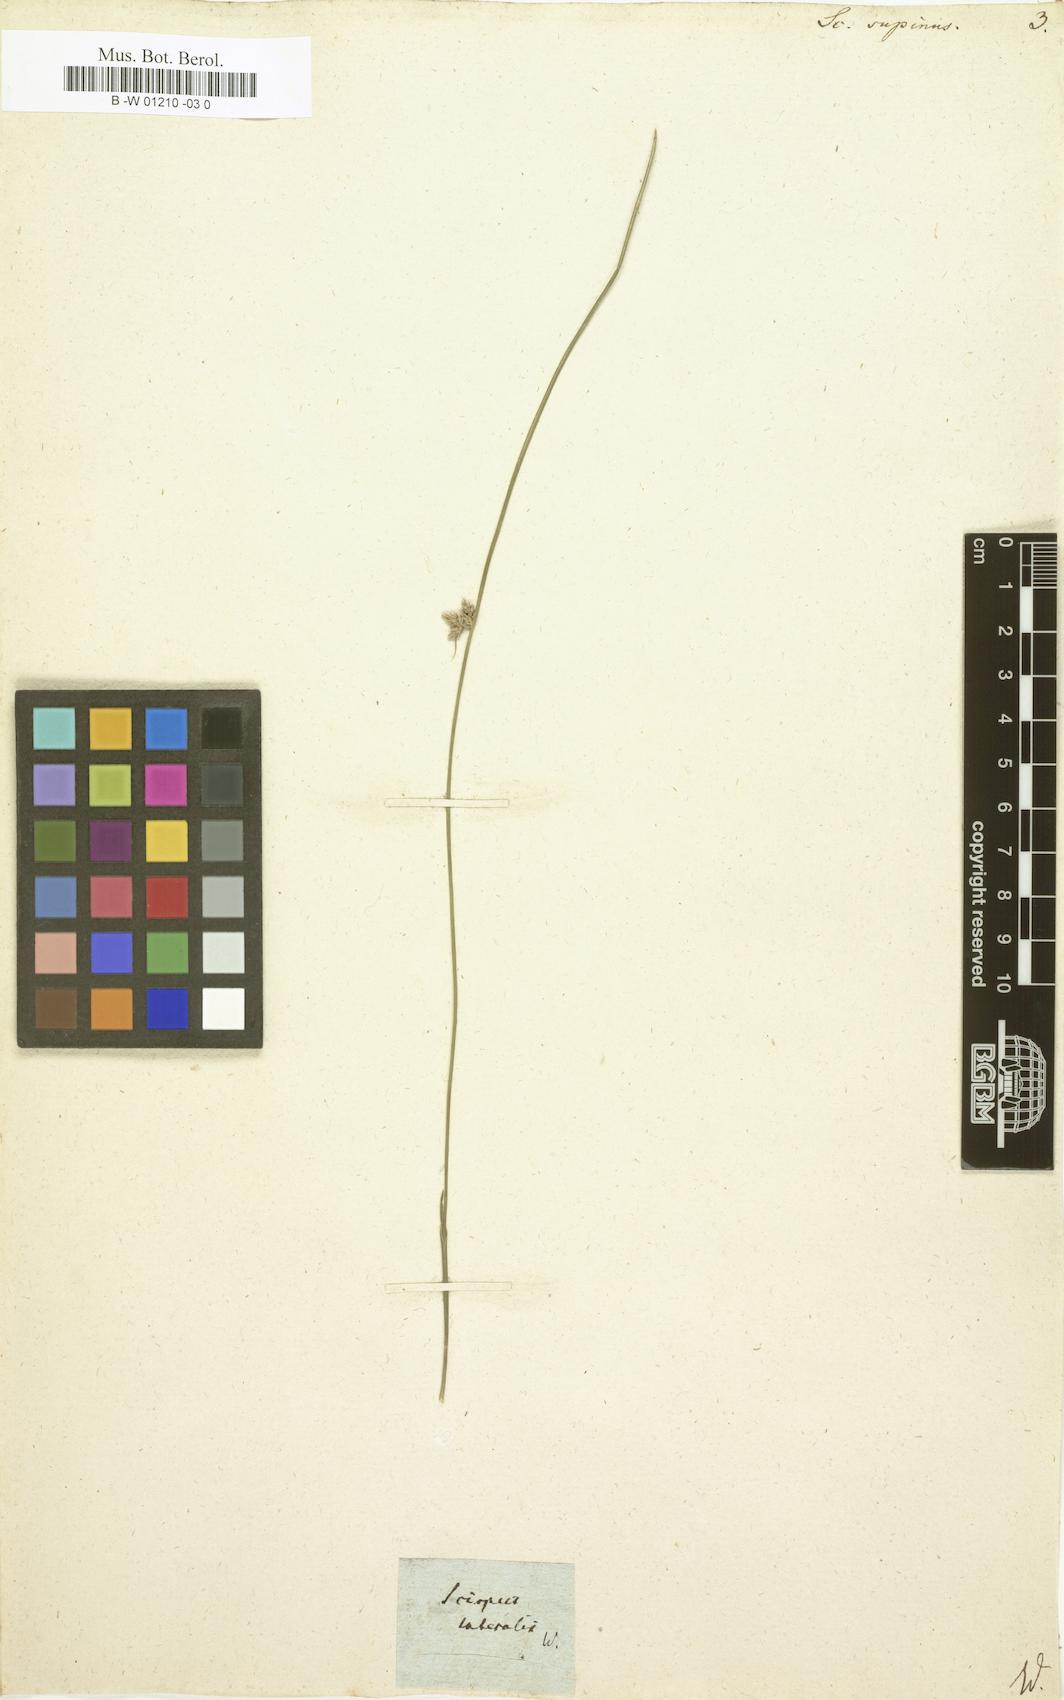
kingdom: Plantae
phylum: Tracheophyta
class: Liliopsida
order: Poales
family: Cyperaceae
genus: Scirpus
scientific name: Scirpus supinus
